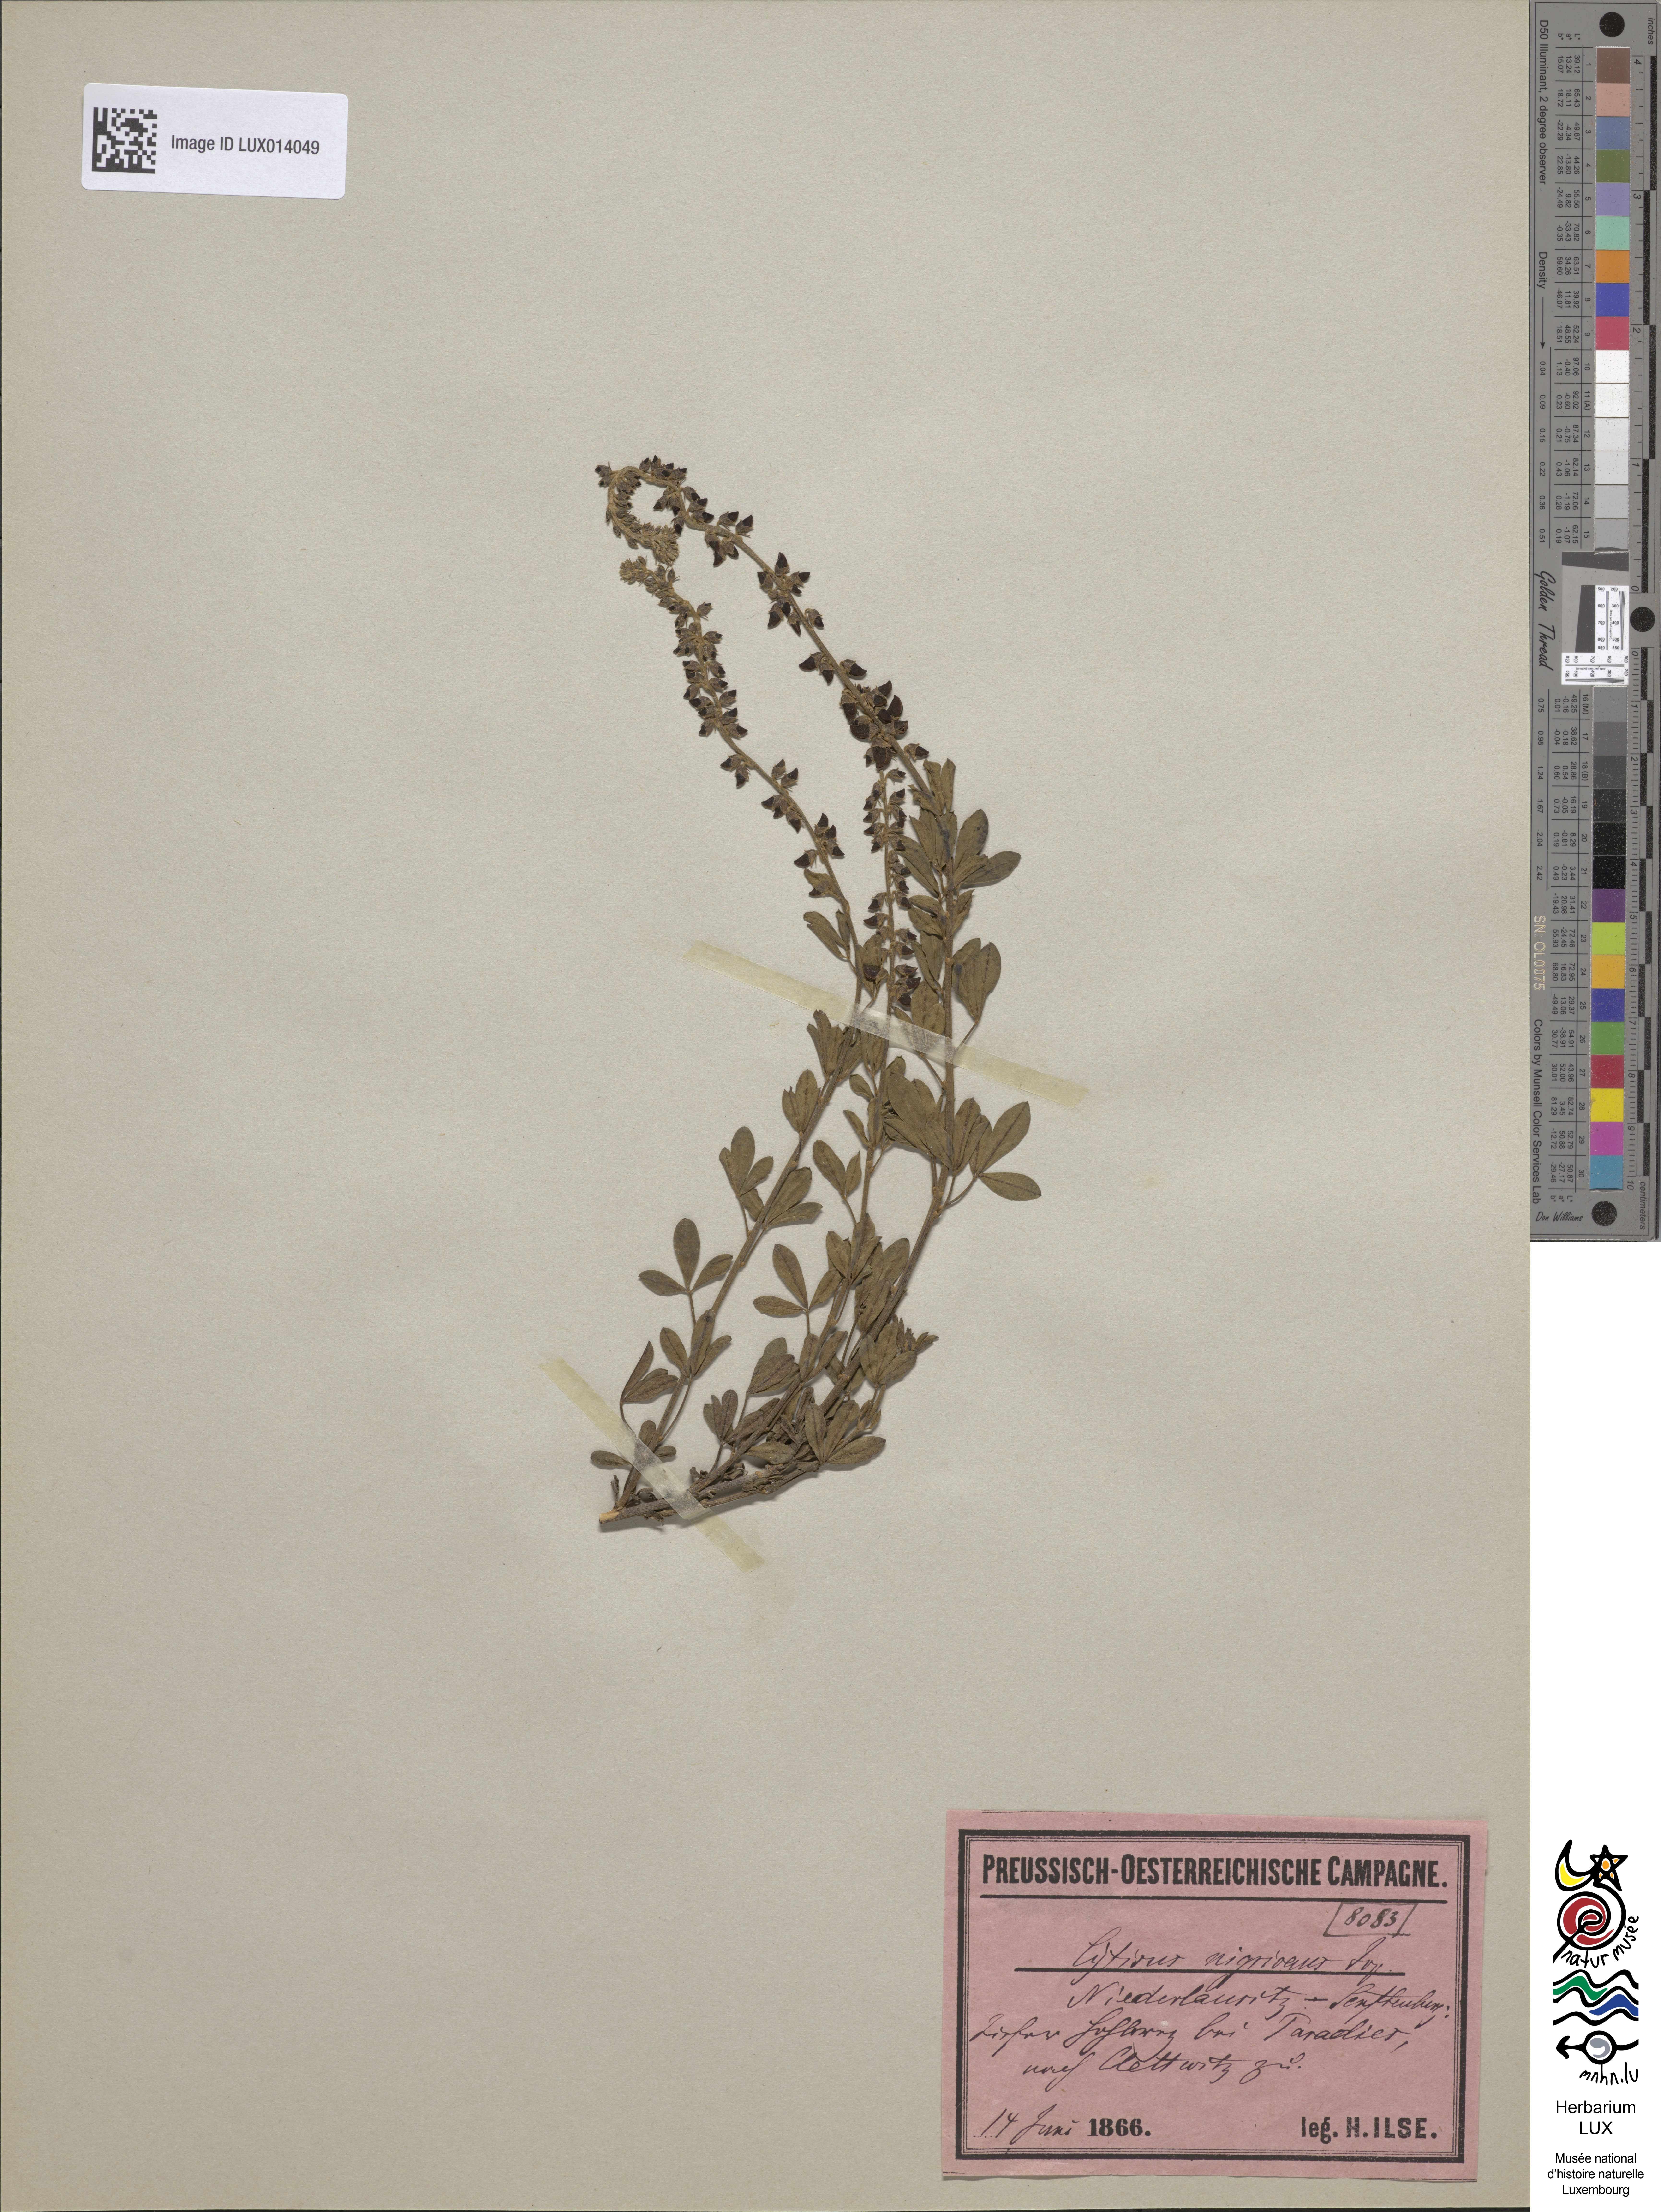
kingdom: Plantae
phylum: Tracheophyta
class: Magnoliopsida
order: Fabales
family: Fabaceae
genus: Cytisus
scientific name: Cytisus nigricans
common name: Black broom
